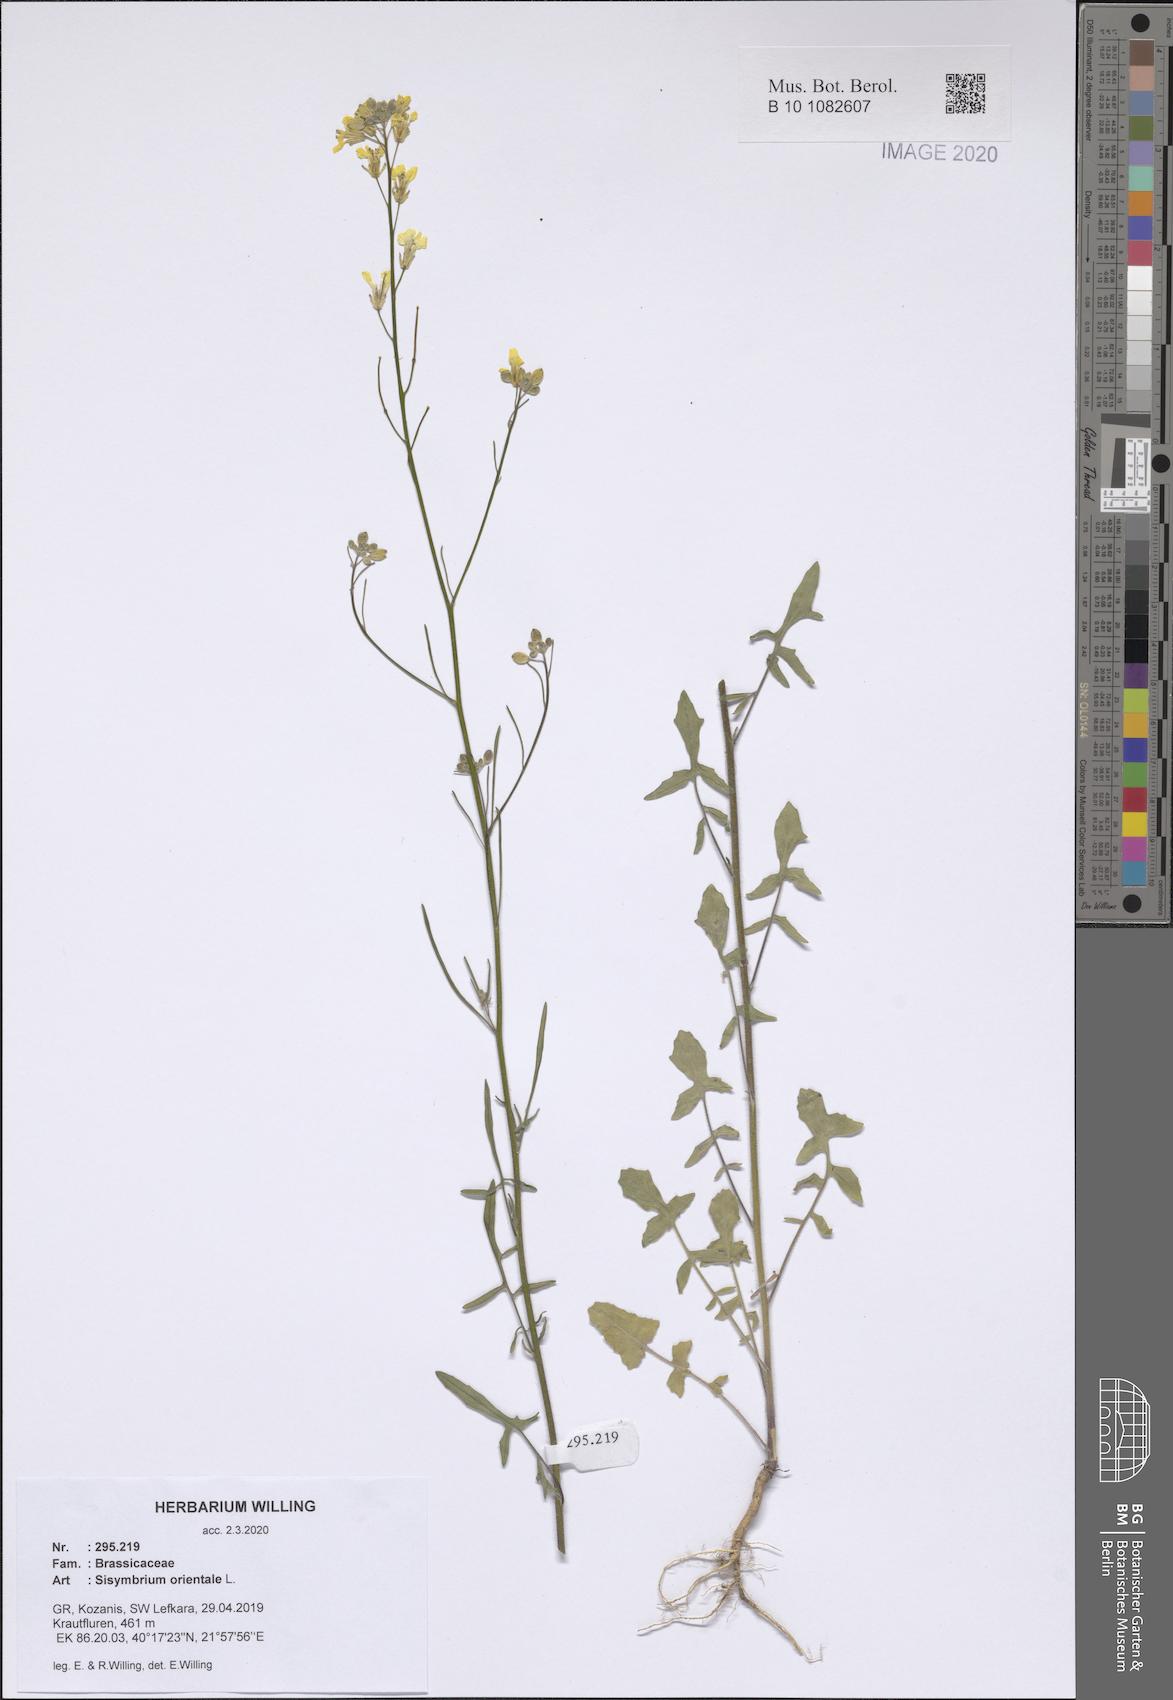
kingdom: Plantae
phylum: Tracheophyta
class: Magnoliopsida
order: Brassicales
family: Brassicaceae
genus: Sisymbrium
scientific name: Sisymbrium orientale
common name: Eastern rocket
